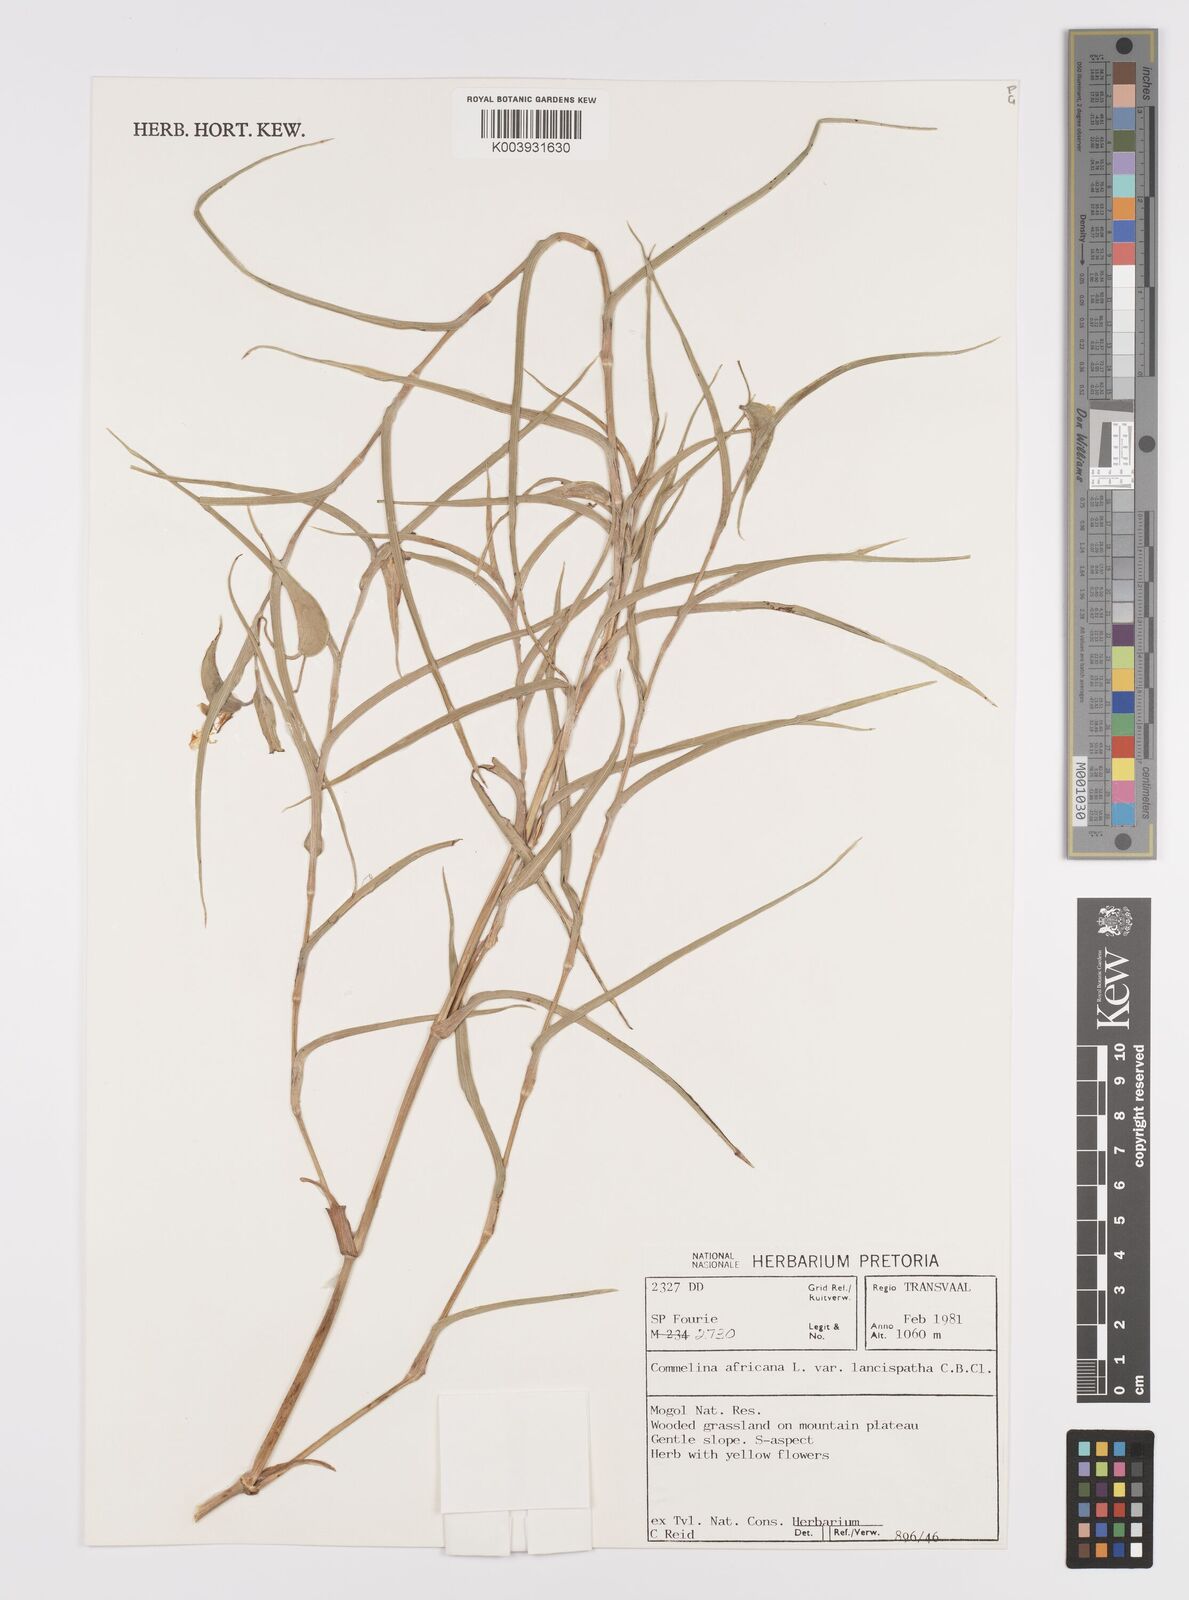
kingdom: Plantae
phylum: Tracheophyta
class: Liliopsida
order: Commelinales
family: Commelinaceae
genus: Commelina
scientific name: Commelina africana
